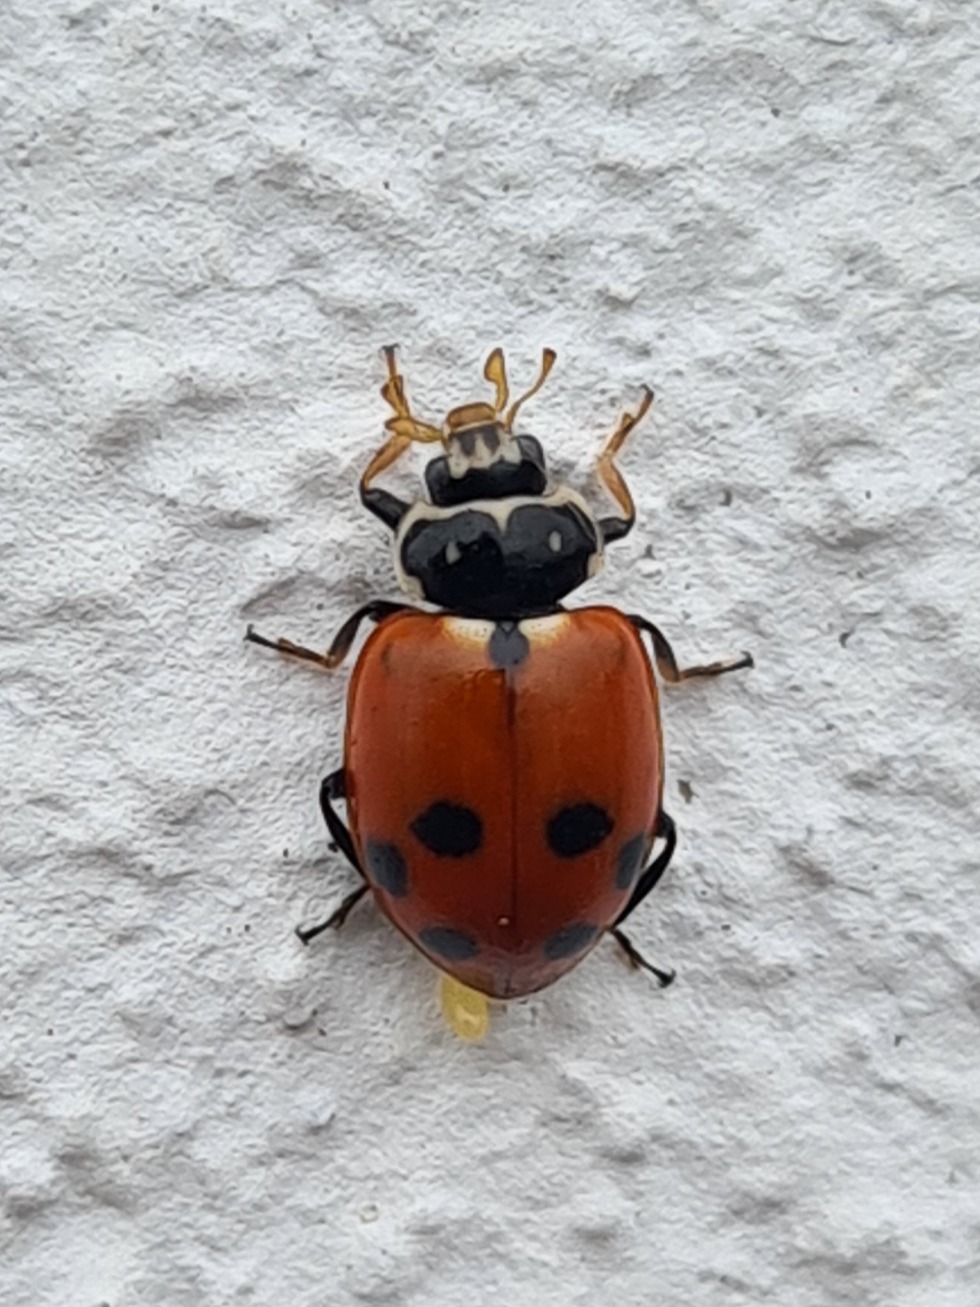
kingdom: Animalia
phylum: Arthropoda
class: Insecta
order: Coleoptera
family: Coccinellidae
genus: Hippodamia
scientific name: Hippodamia variegata
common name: Adonis' mariehøne
